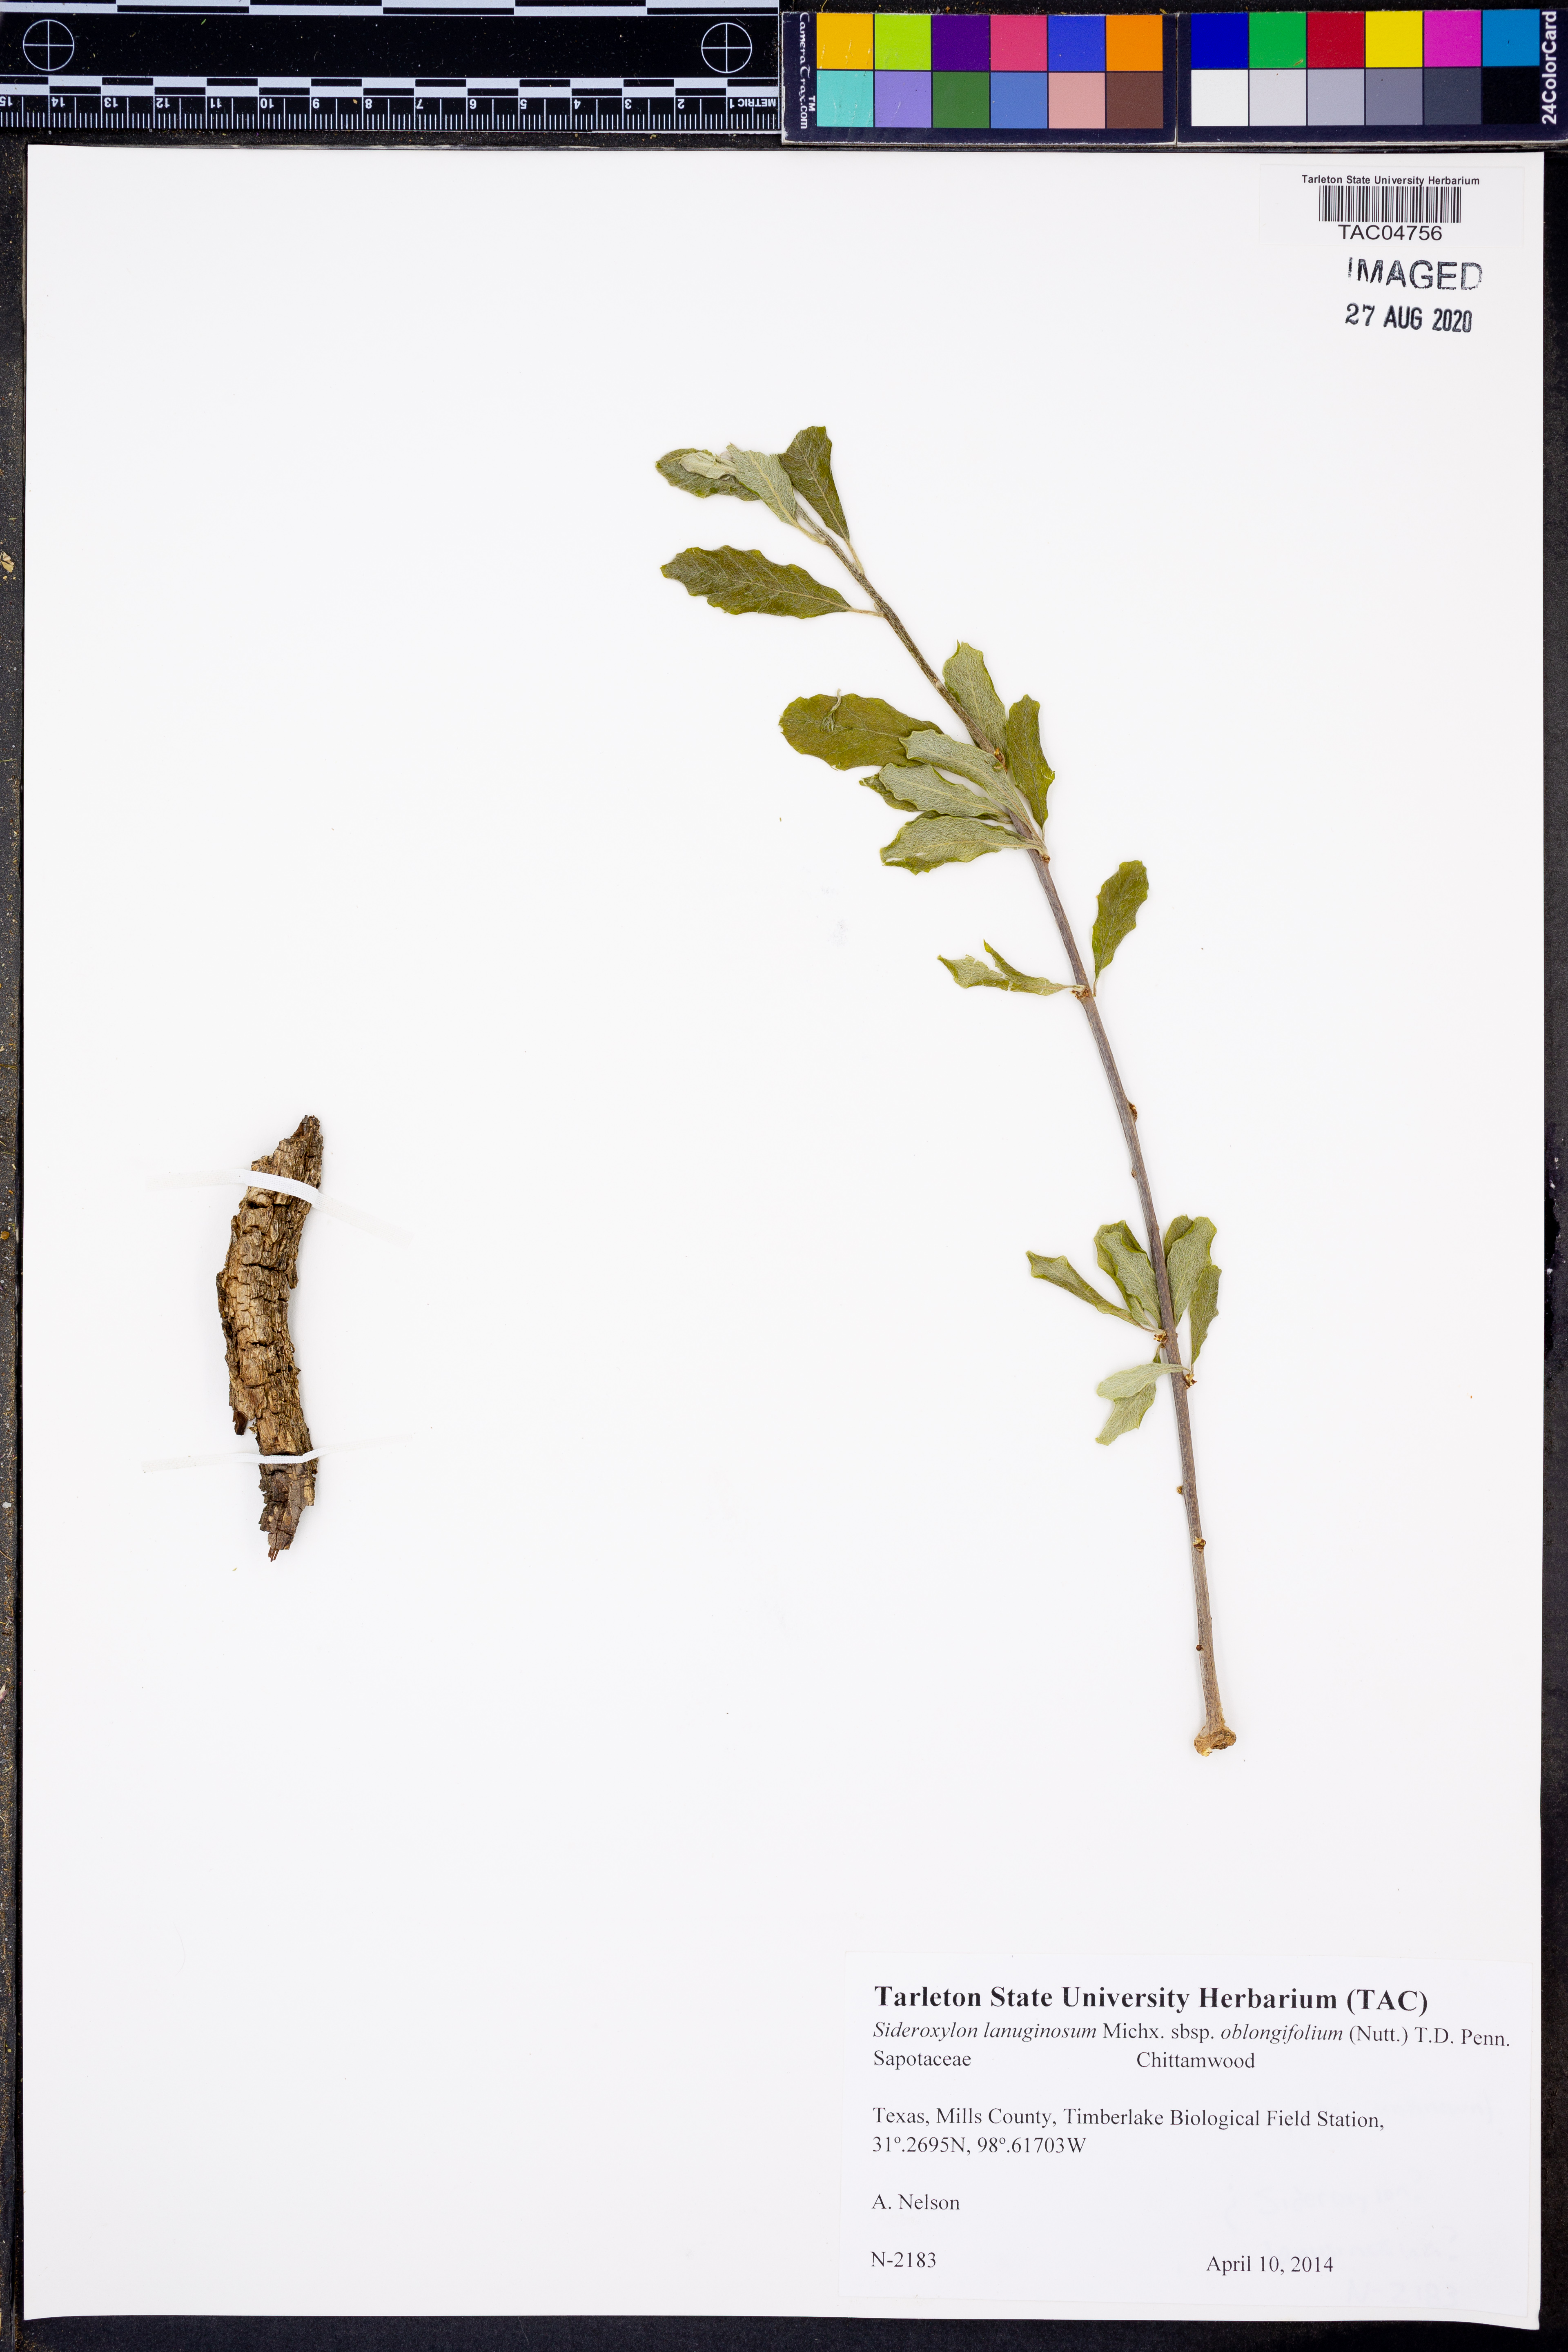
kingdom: Plantae
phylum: Tracheophyta
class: Magnoliopsida
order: Ericales
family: Sapotaceae
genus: Sideroxylon
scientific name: Sideroxylon lanuginosum
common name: Chittamwood
